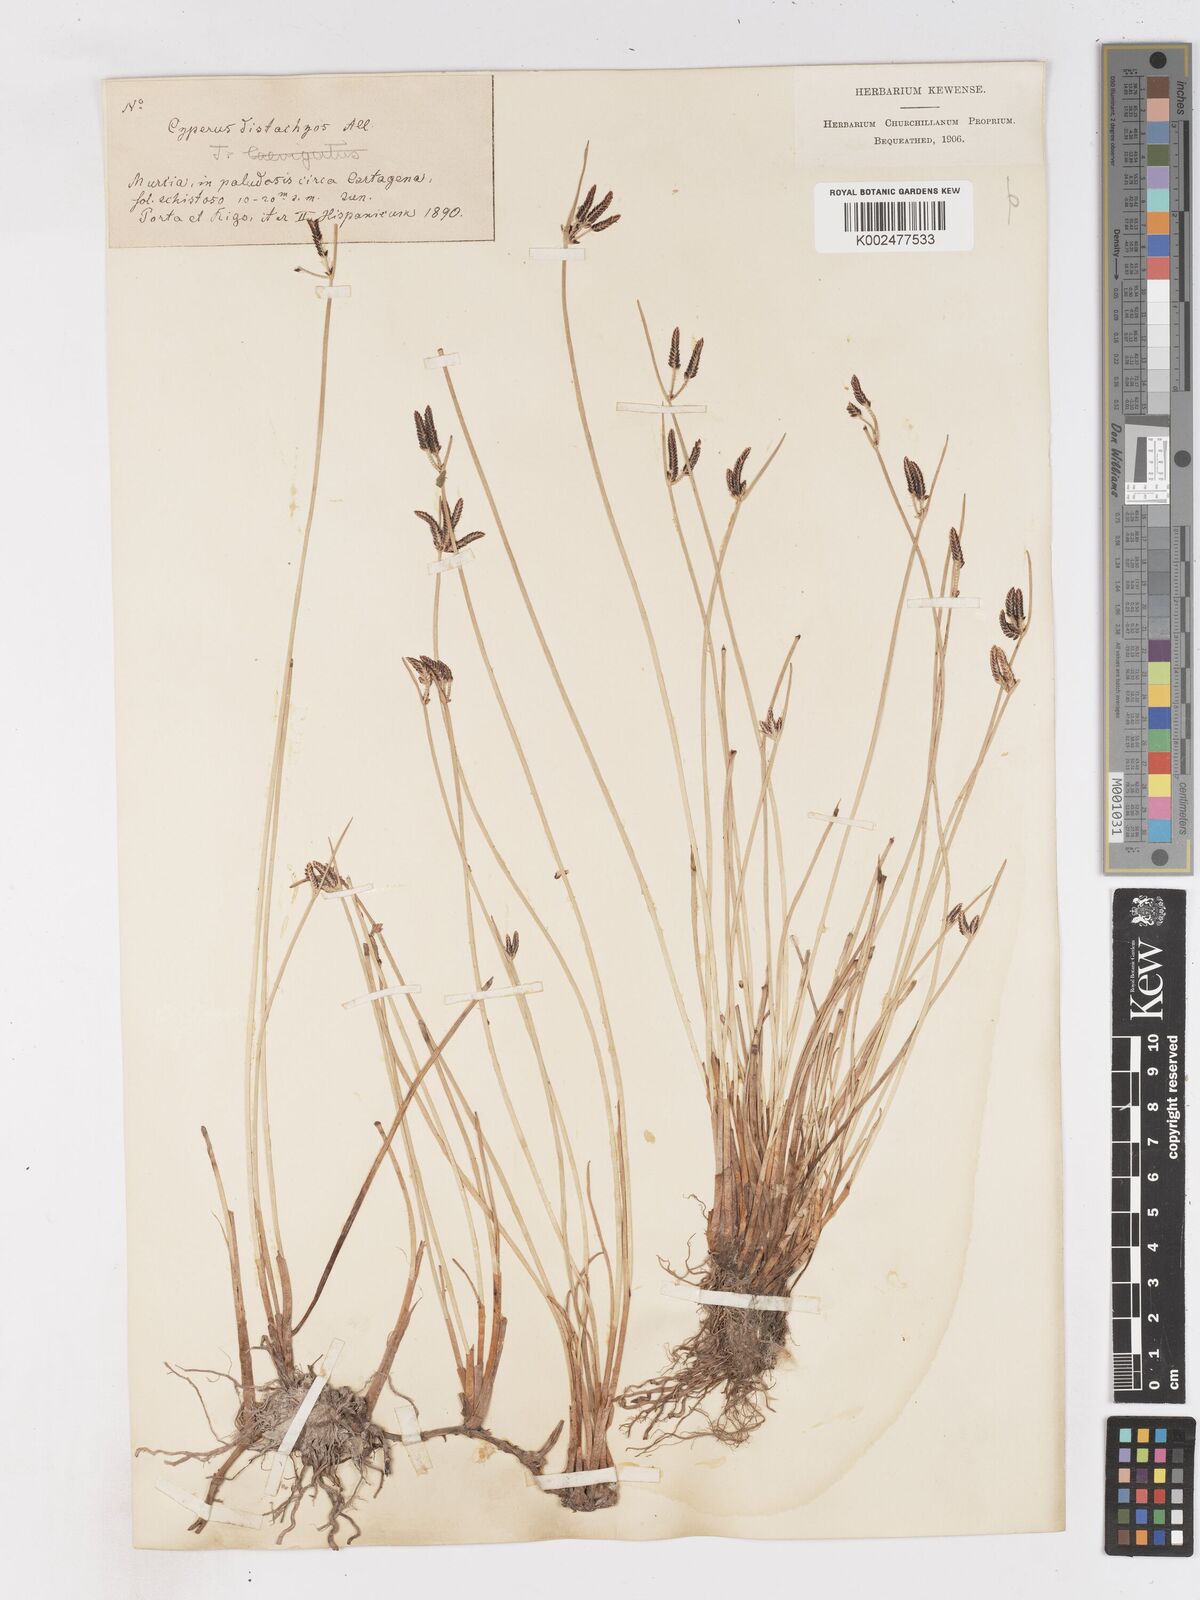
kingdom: Plantae
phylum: Tracheophyta
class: Liliopsida
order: Poales
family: Cyperaceae
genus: Cyperus
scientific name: Cyperus laevigatus
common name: Smooth flat sedge
